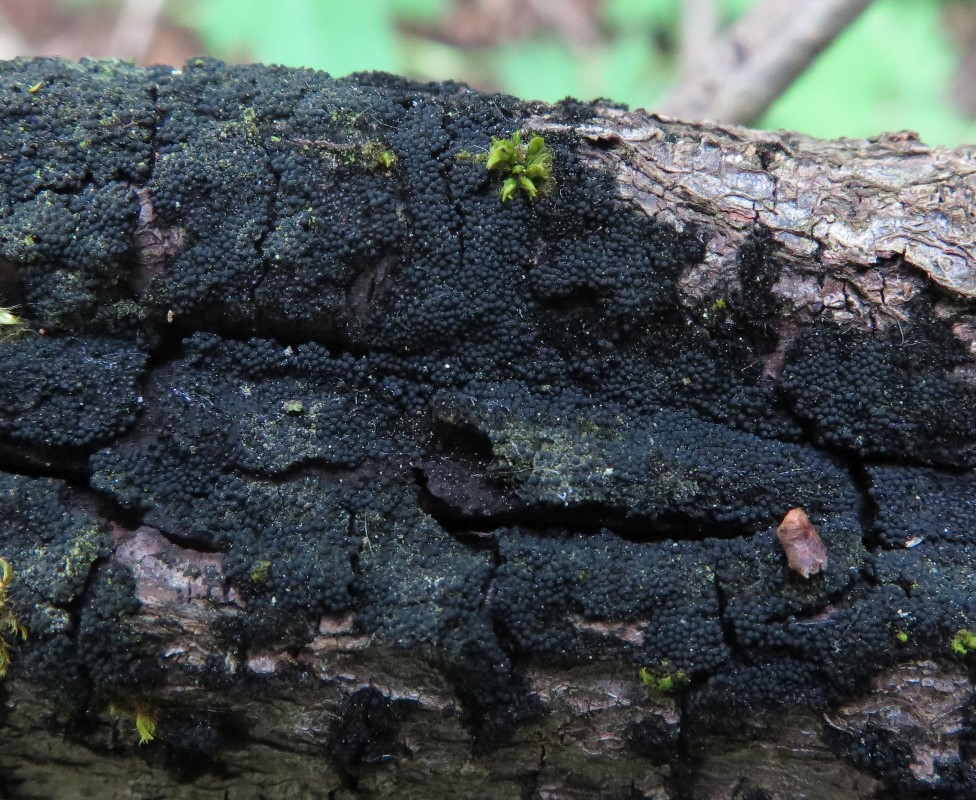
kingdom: Fungi
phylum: Ascomycota
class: Sordariomycetes
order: Coronophorales
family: Chaetosphaerellaceae
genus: Chaetosphaerella
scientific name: Chaetosphaerella phaeostroma
